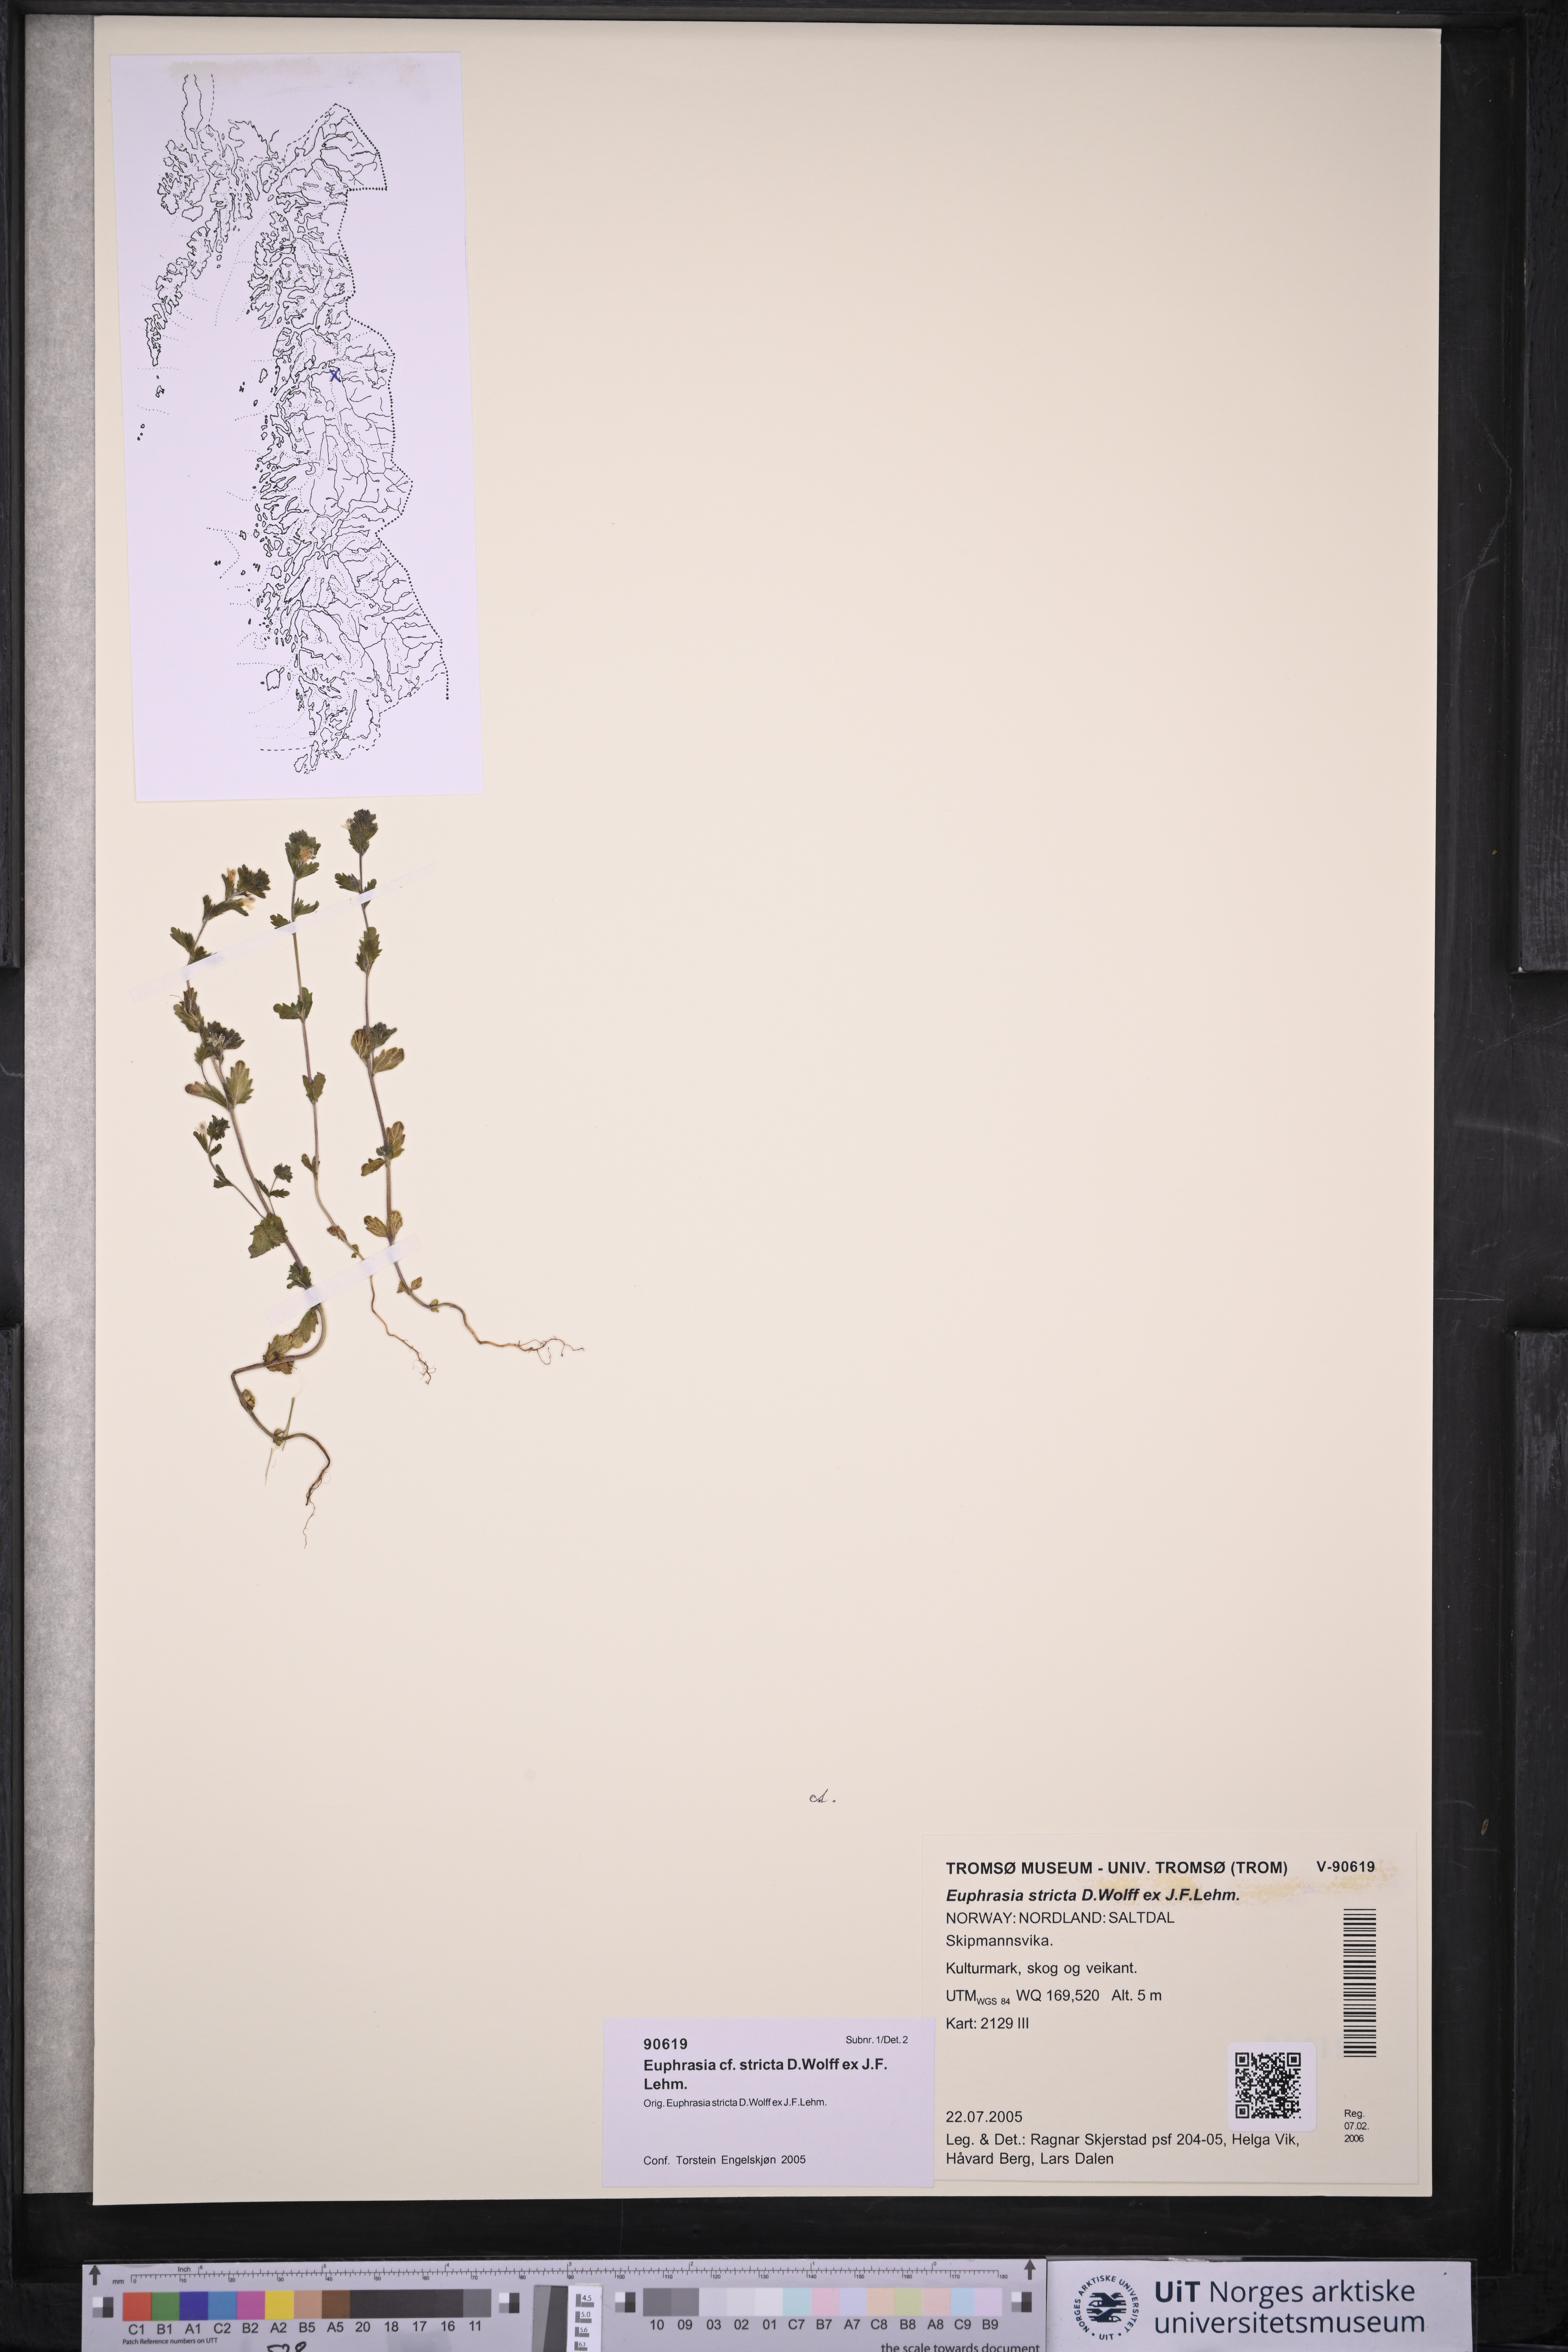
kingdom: Plantae
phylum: Tracheophyta
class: Magnoliopsida
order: Lamiales
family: Orobanchaceae
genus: Euphrasia
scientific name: Euphrasia stricta
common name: Drug eyebright
